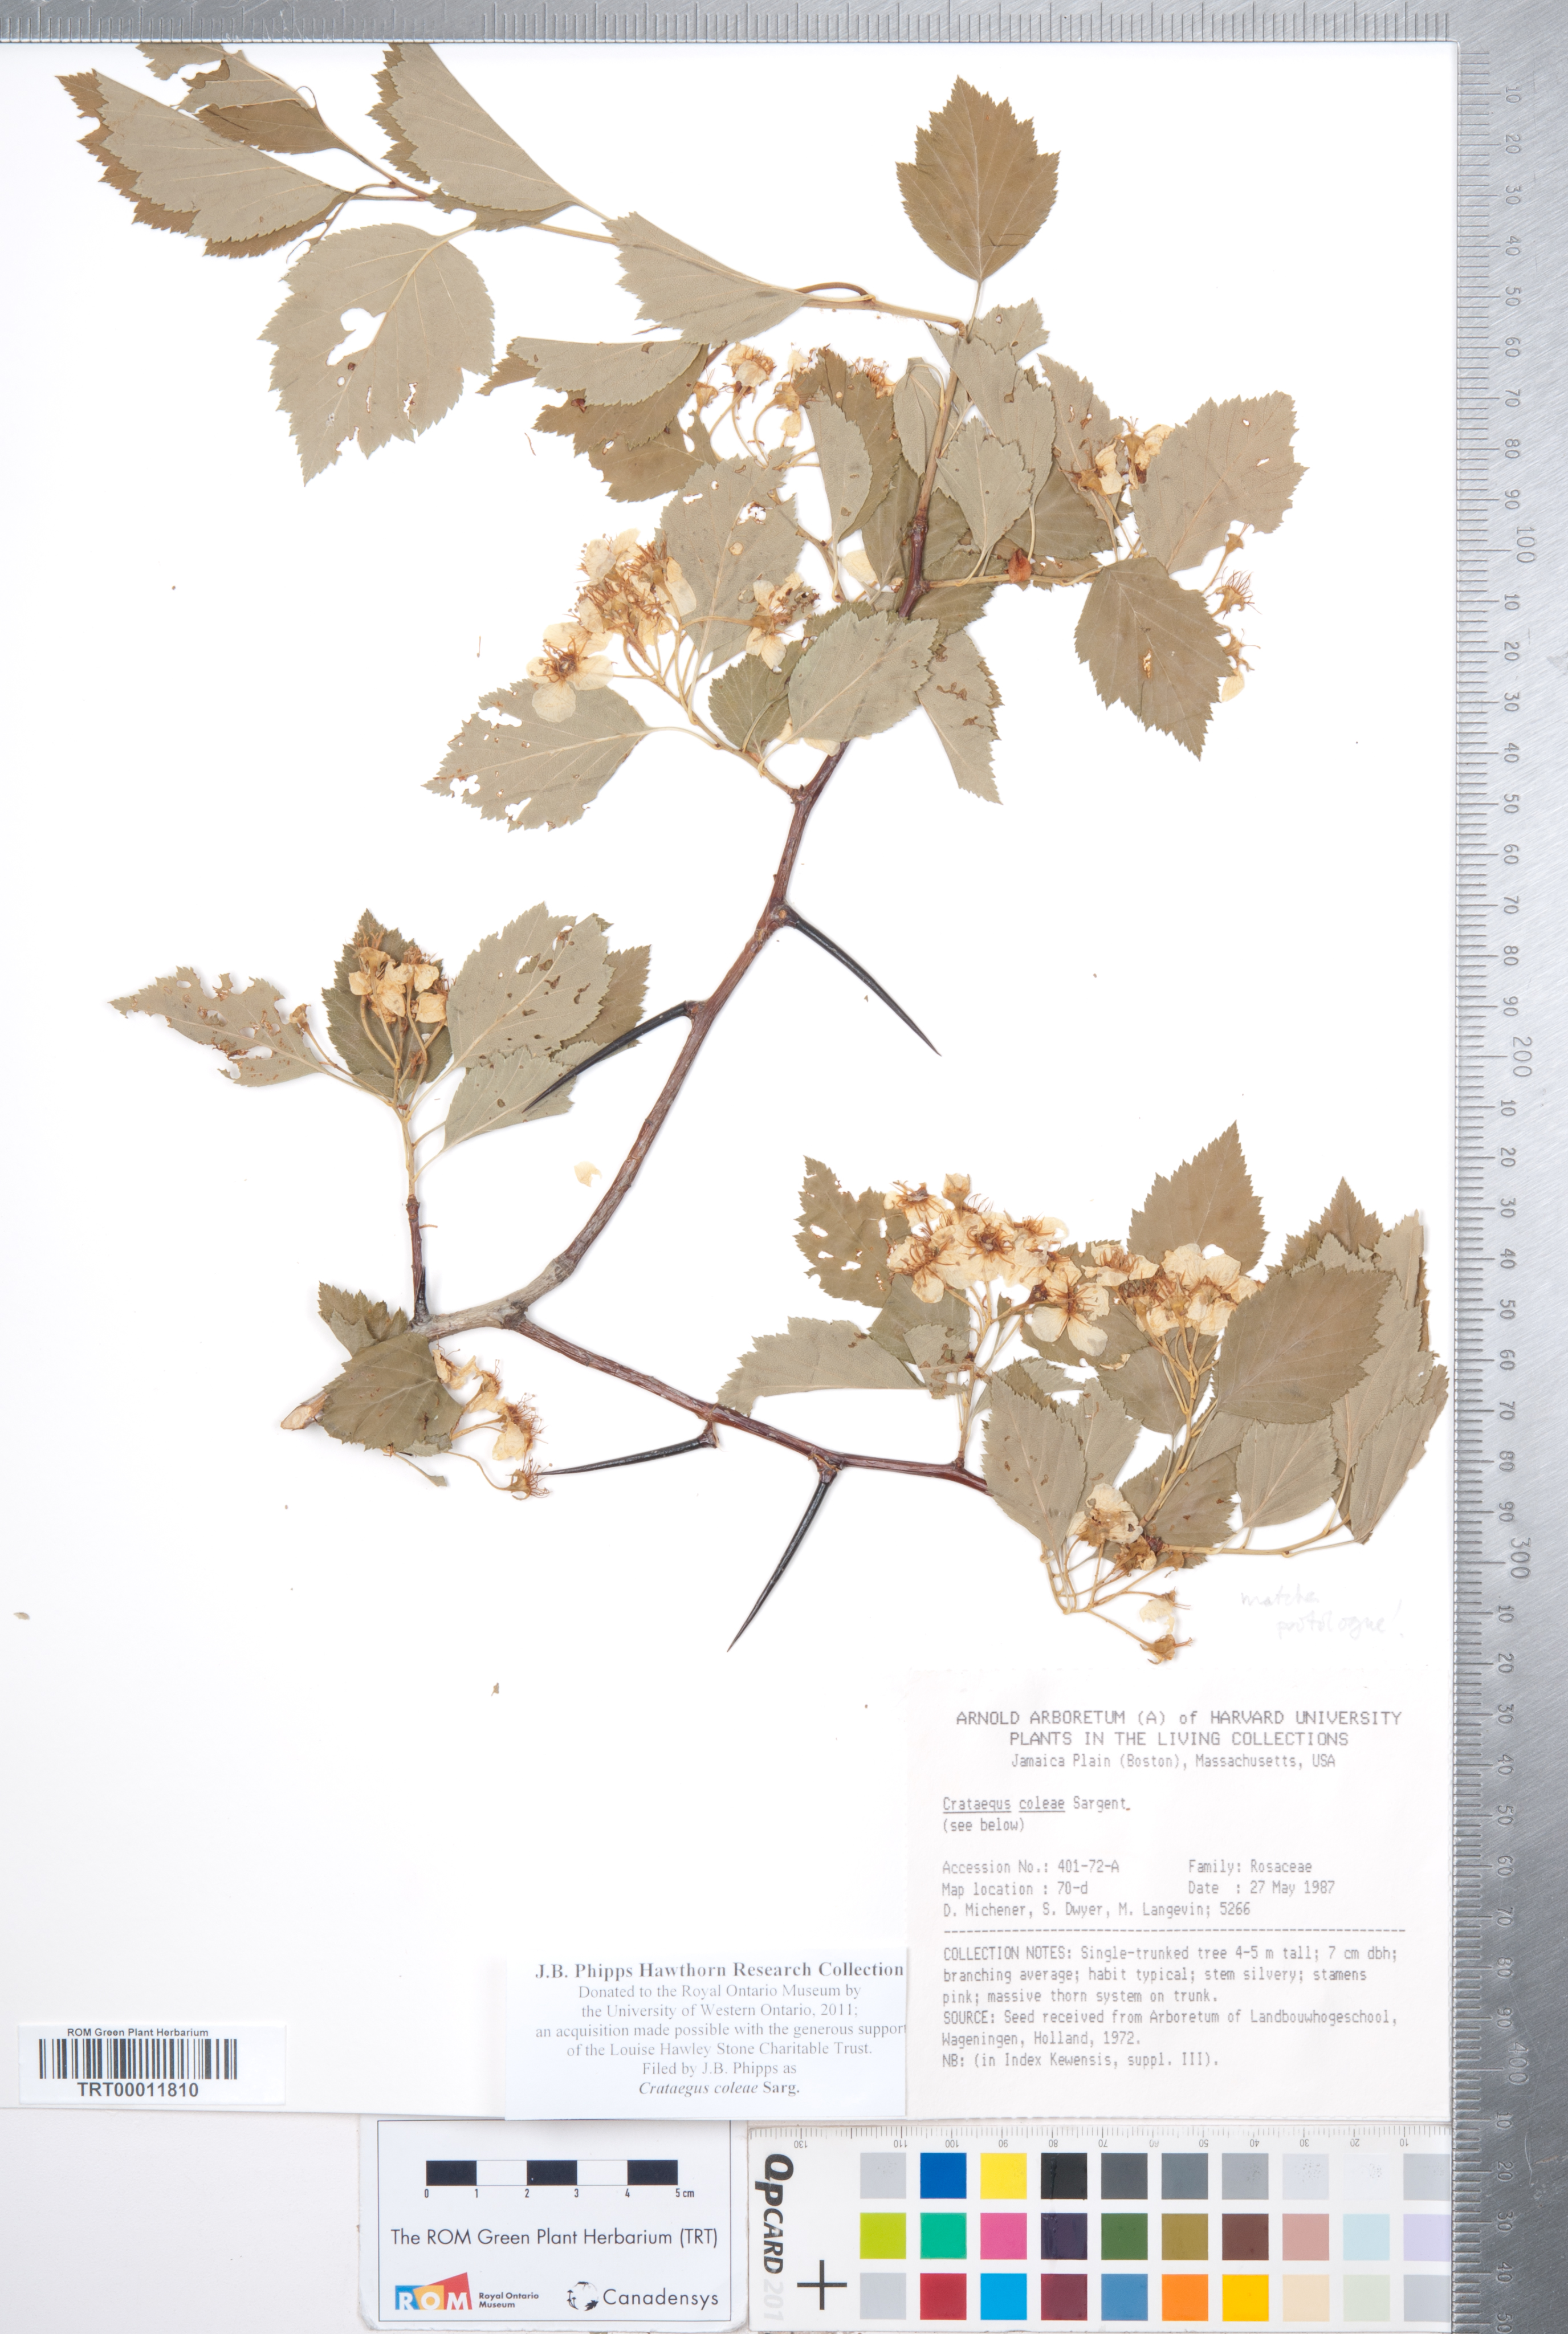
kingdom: Plantae
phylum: Tracheophyta
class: Magnoliopsida
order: Rosales
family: Rosaceae
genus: Crataegus
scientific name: Crataegus coleae
